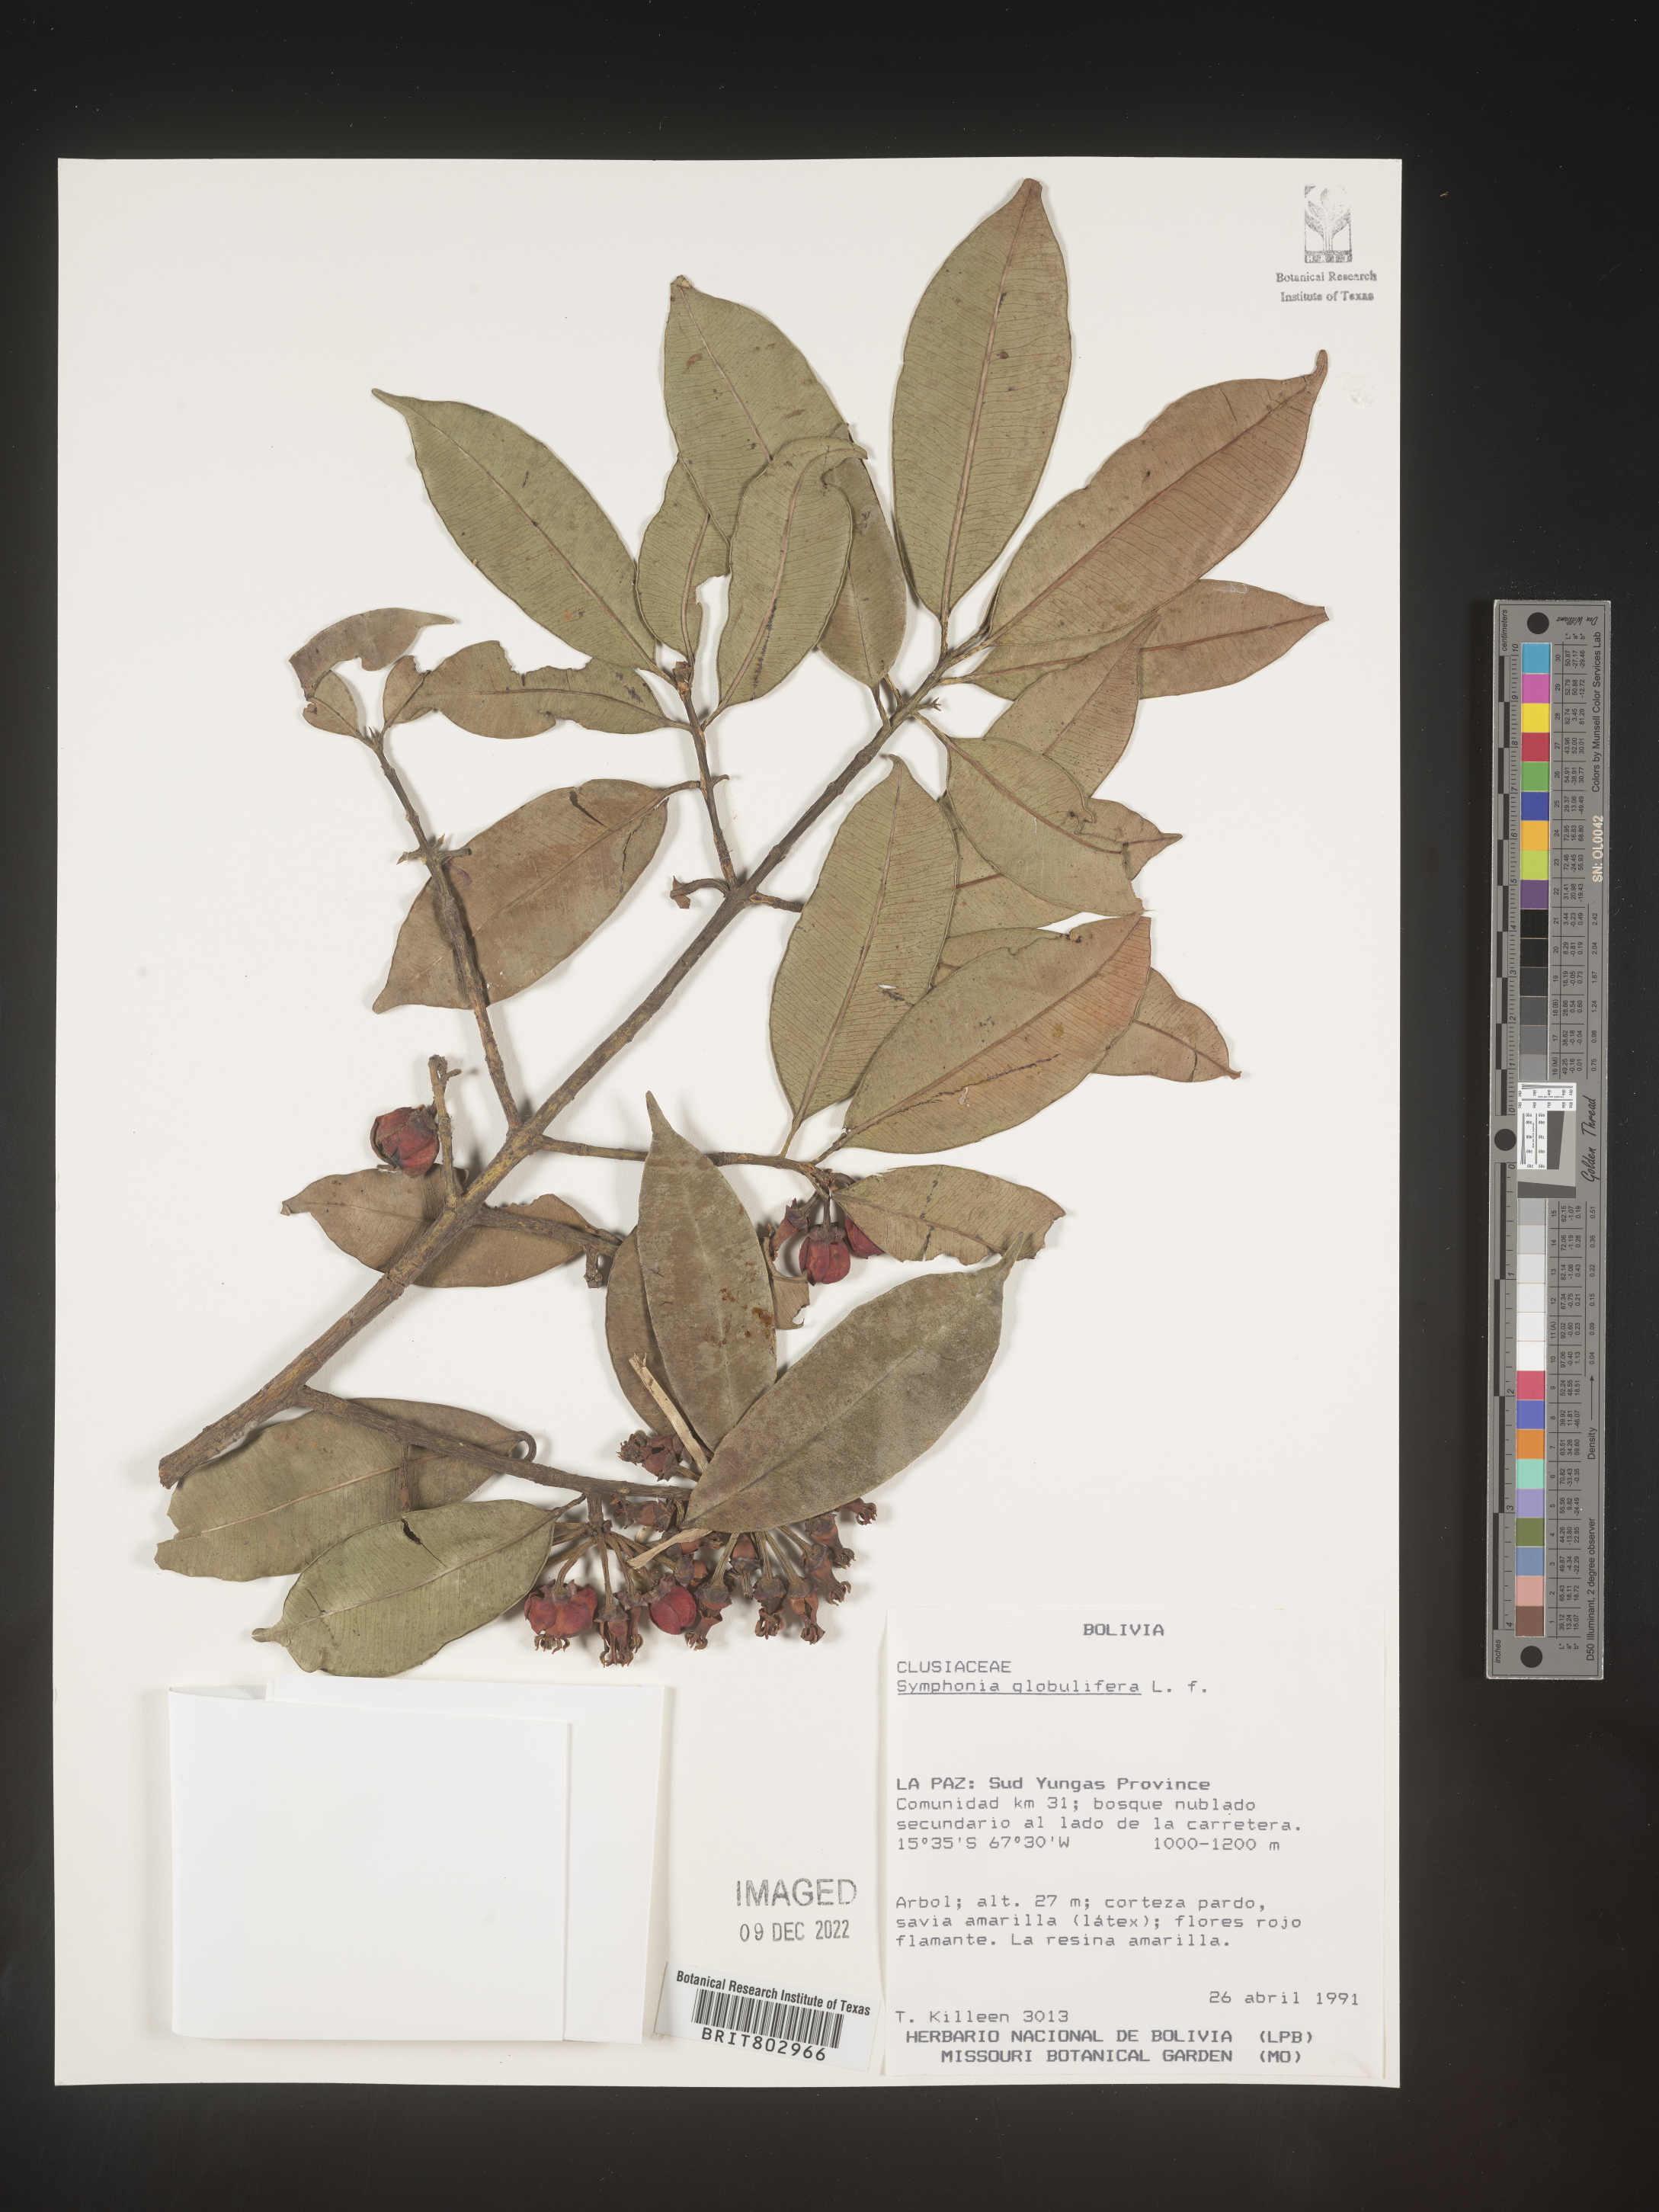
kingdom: Plantae
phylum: Tracheophyta
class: Magnoliopsida
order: Malpighiales
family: Clusiaceae
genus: Symphonia
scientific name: Symphonia
